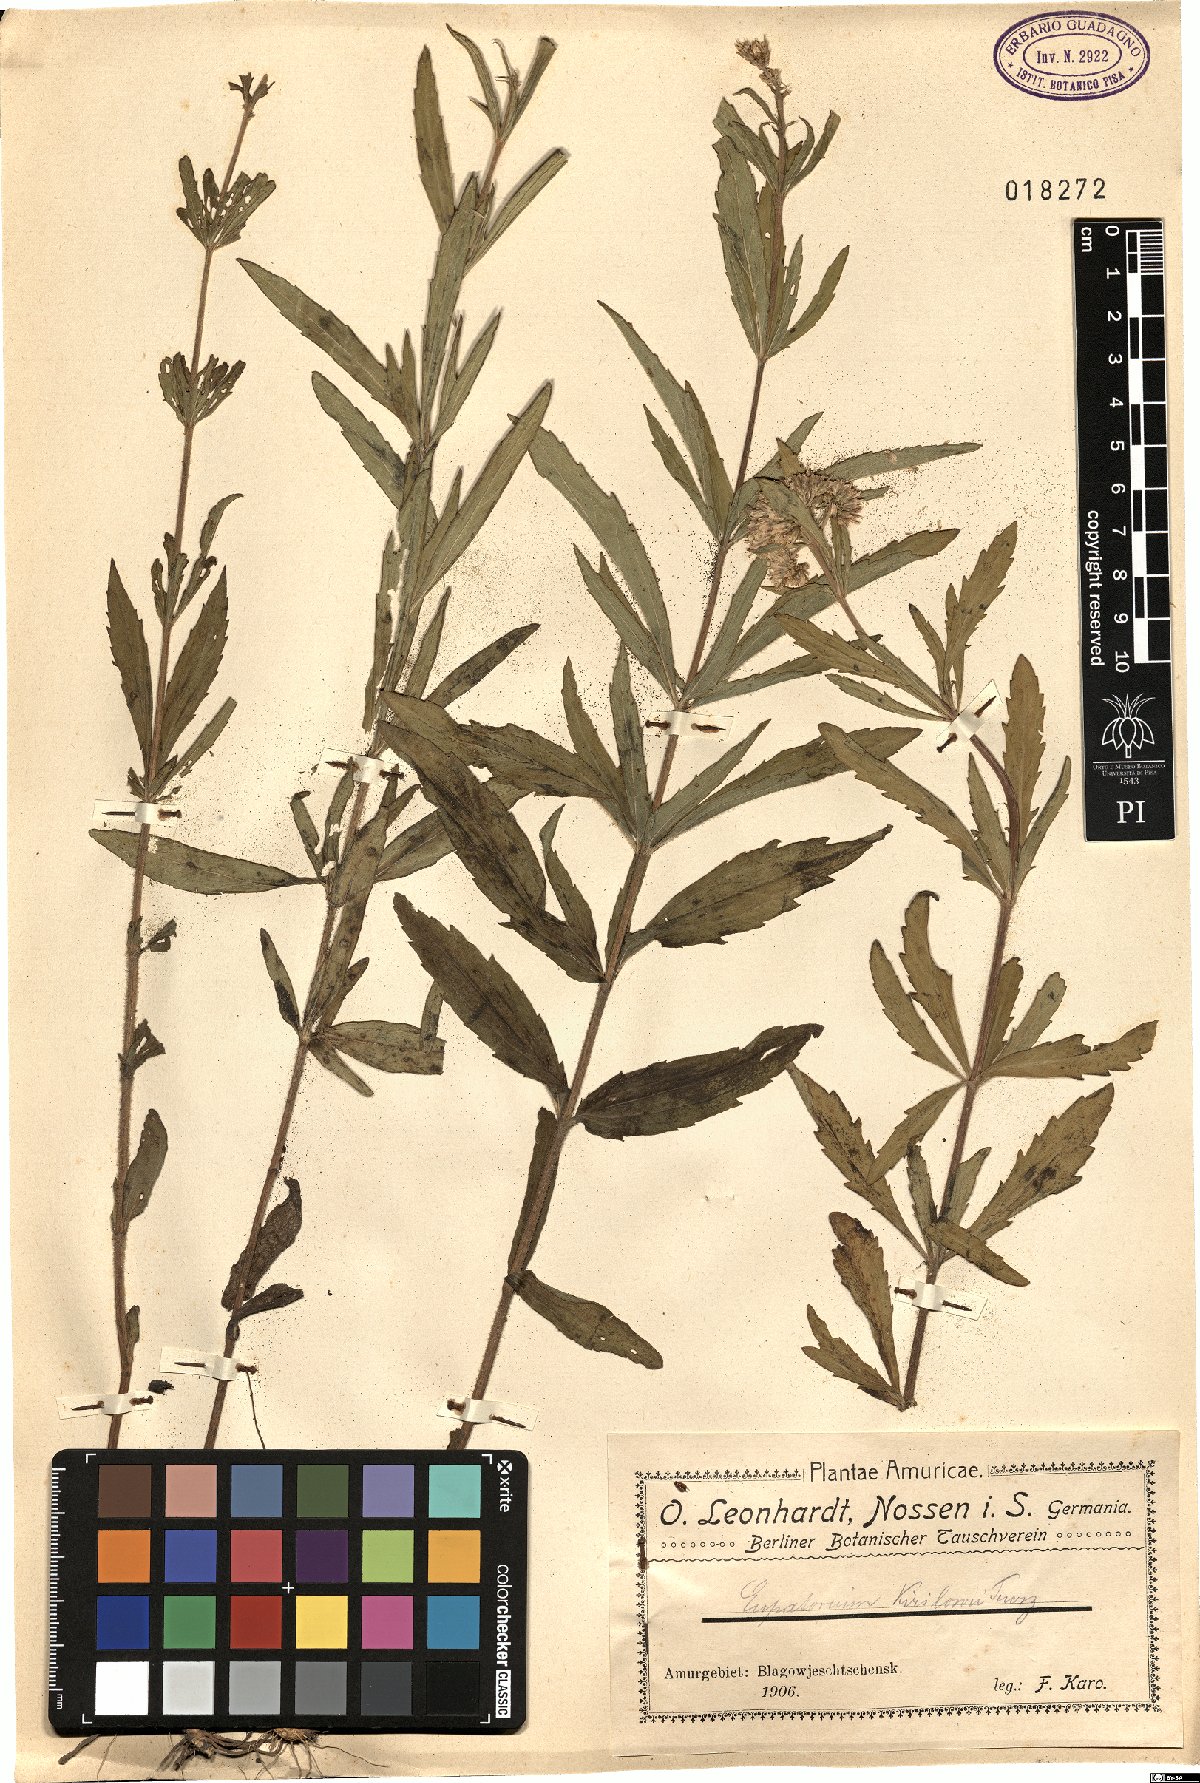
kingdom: Plantae
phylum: Tracheophyta
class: Magnoliopsida
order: Asterales
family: Asteraceae
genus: Eupatorium
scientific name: Eupatorium lindleyanum
